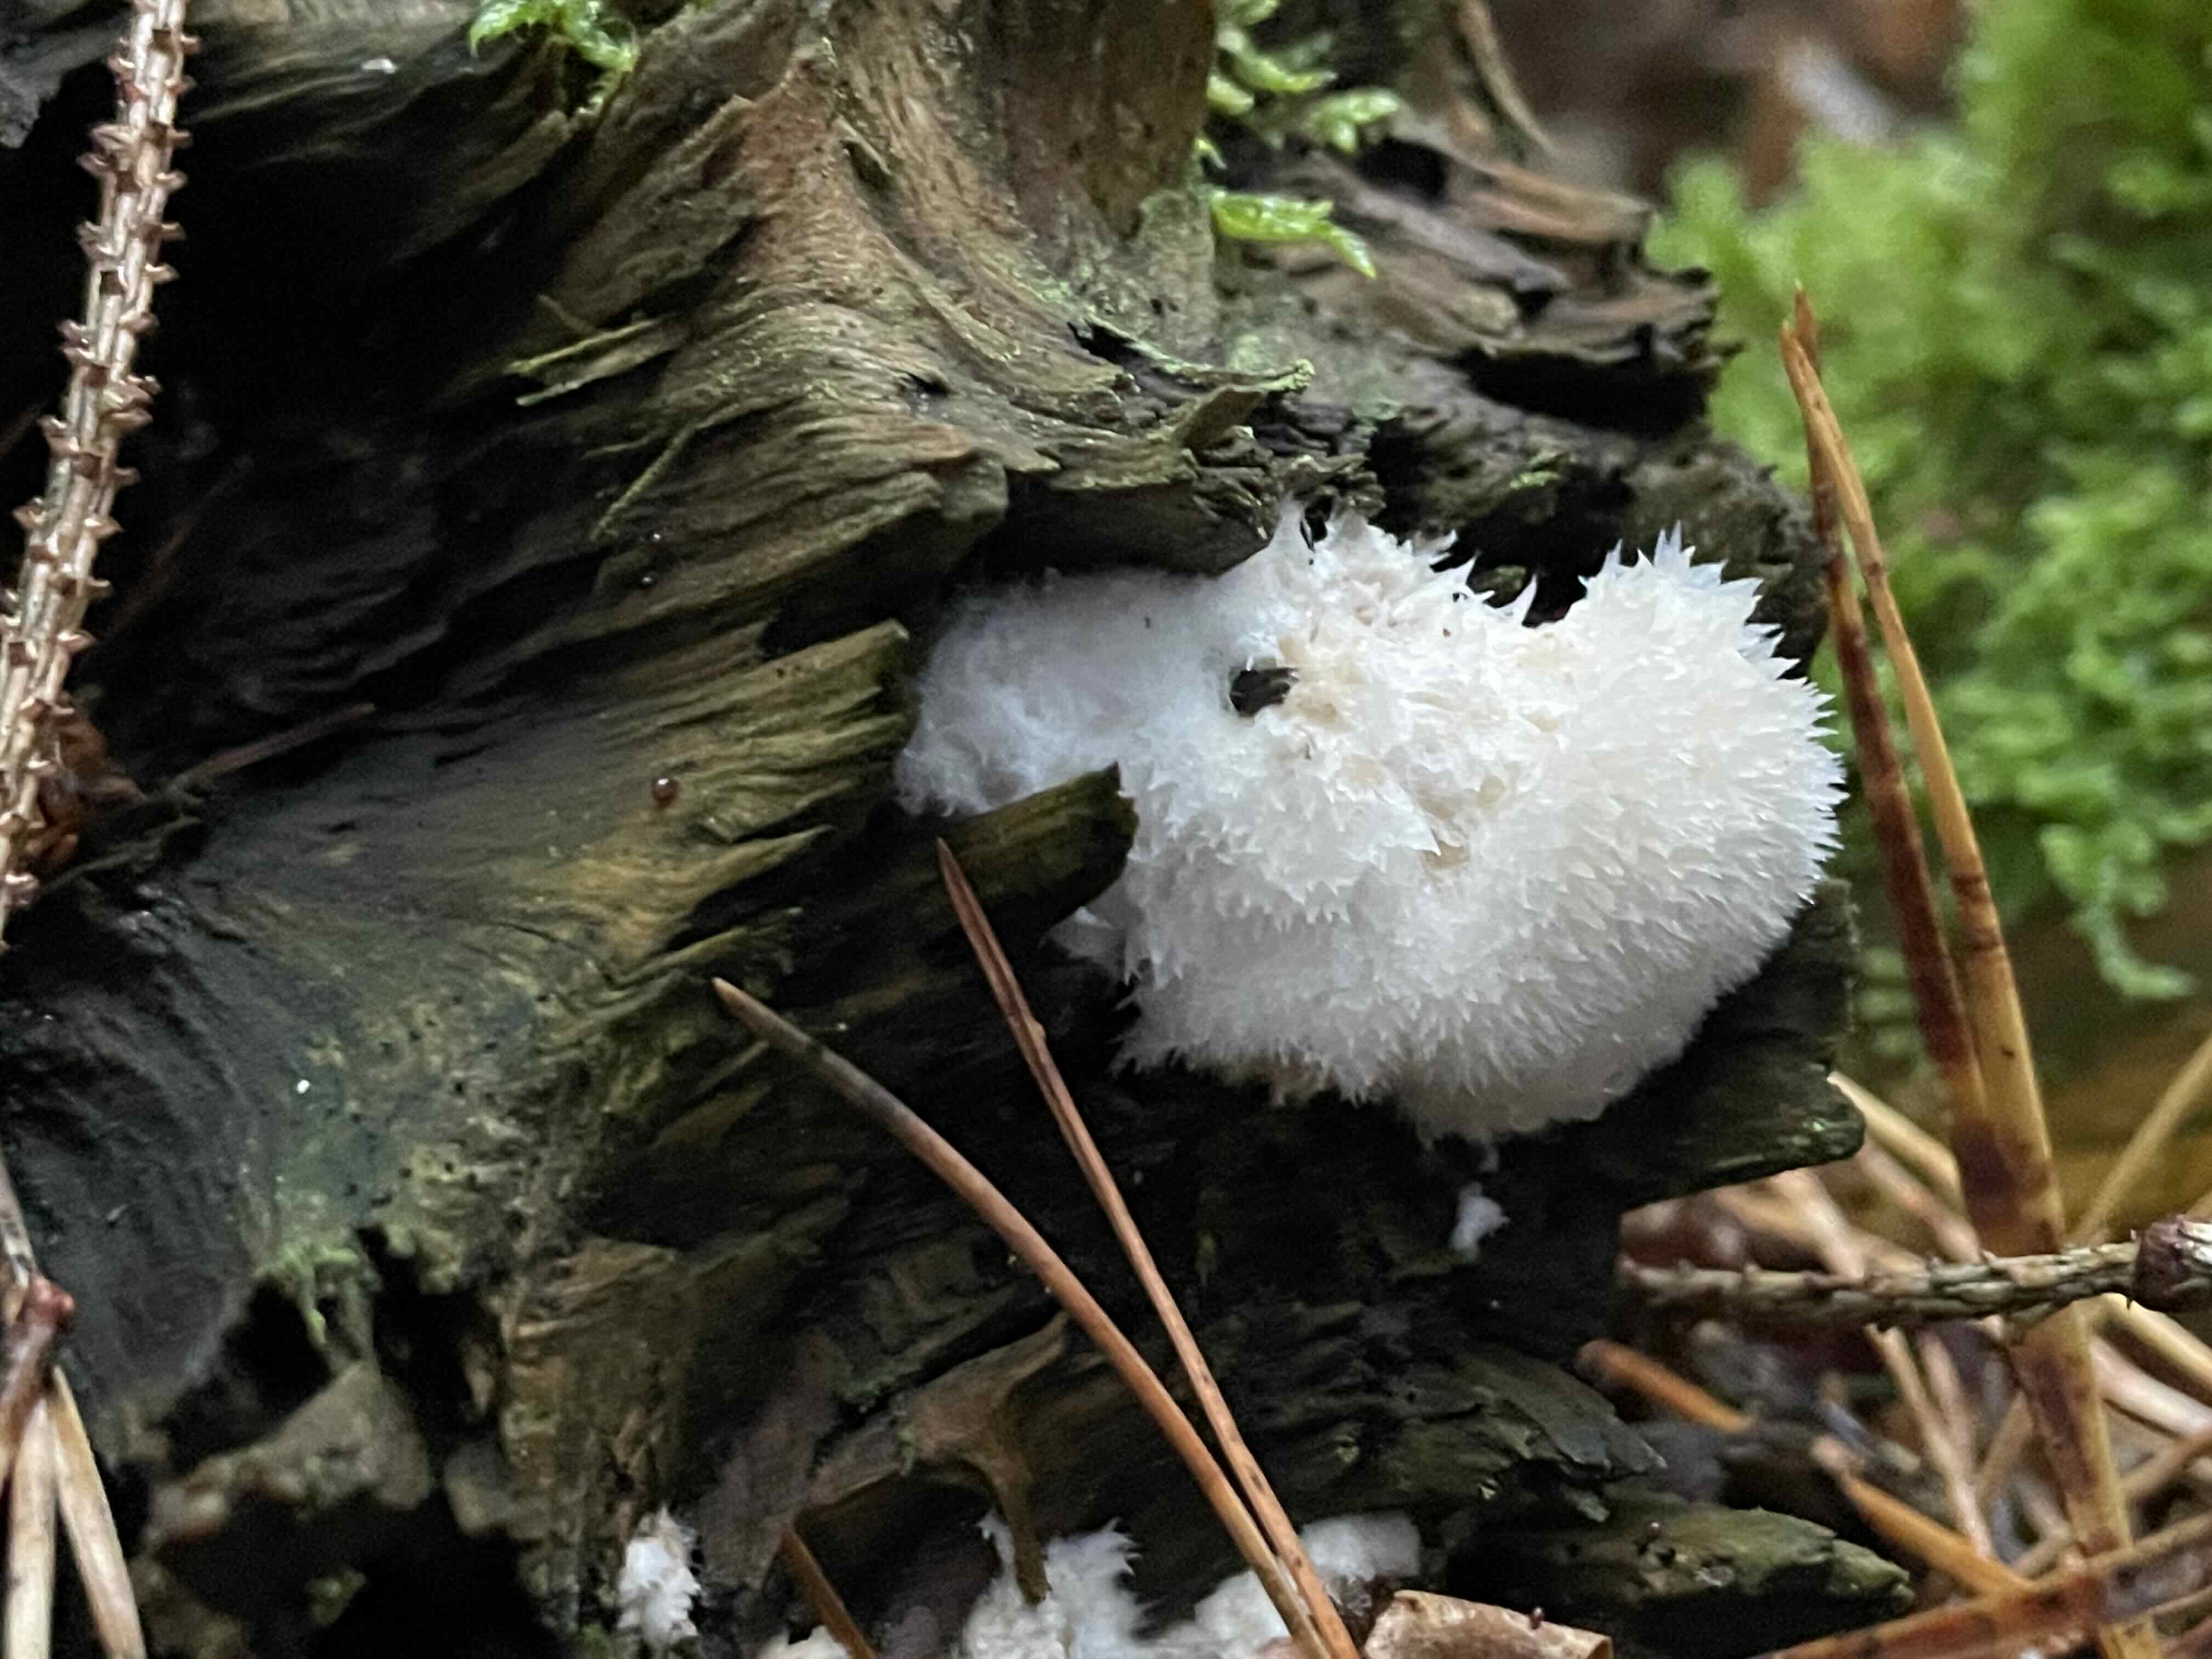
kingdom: Fungi
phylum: Basidiomycota
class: Agaricomycetes
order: Polyporales
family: Dacryobolaceae
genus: Postia
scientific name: Postia ptychogaster
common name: støvende kødporesvamp
